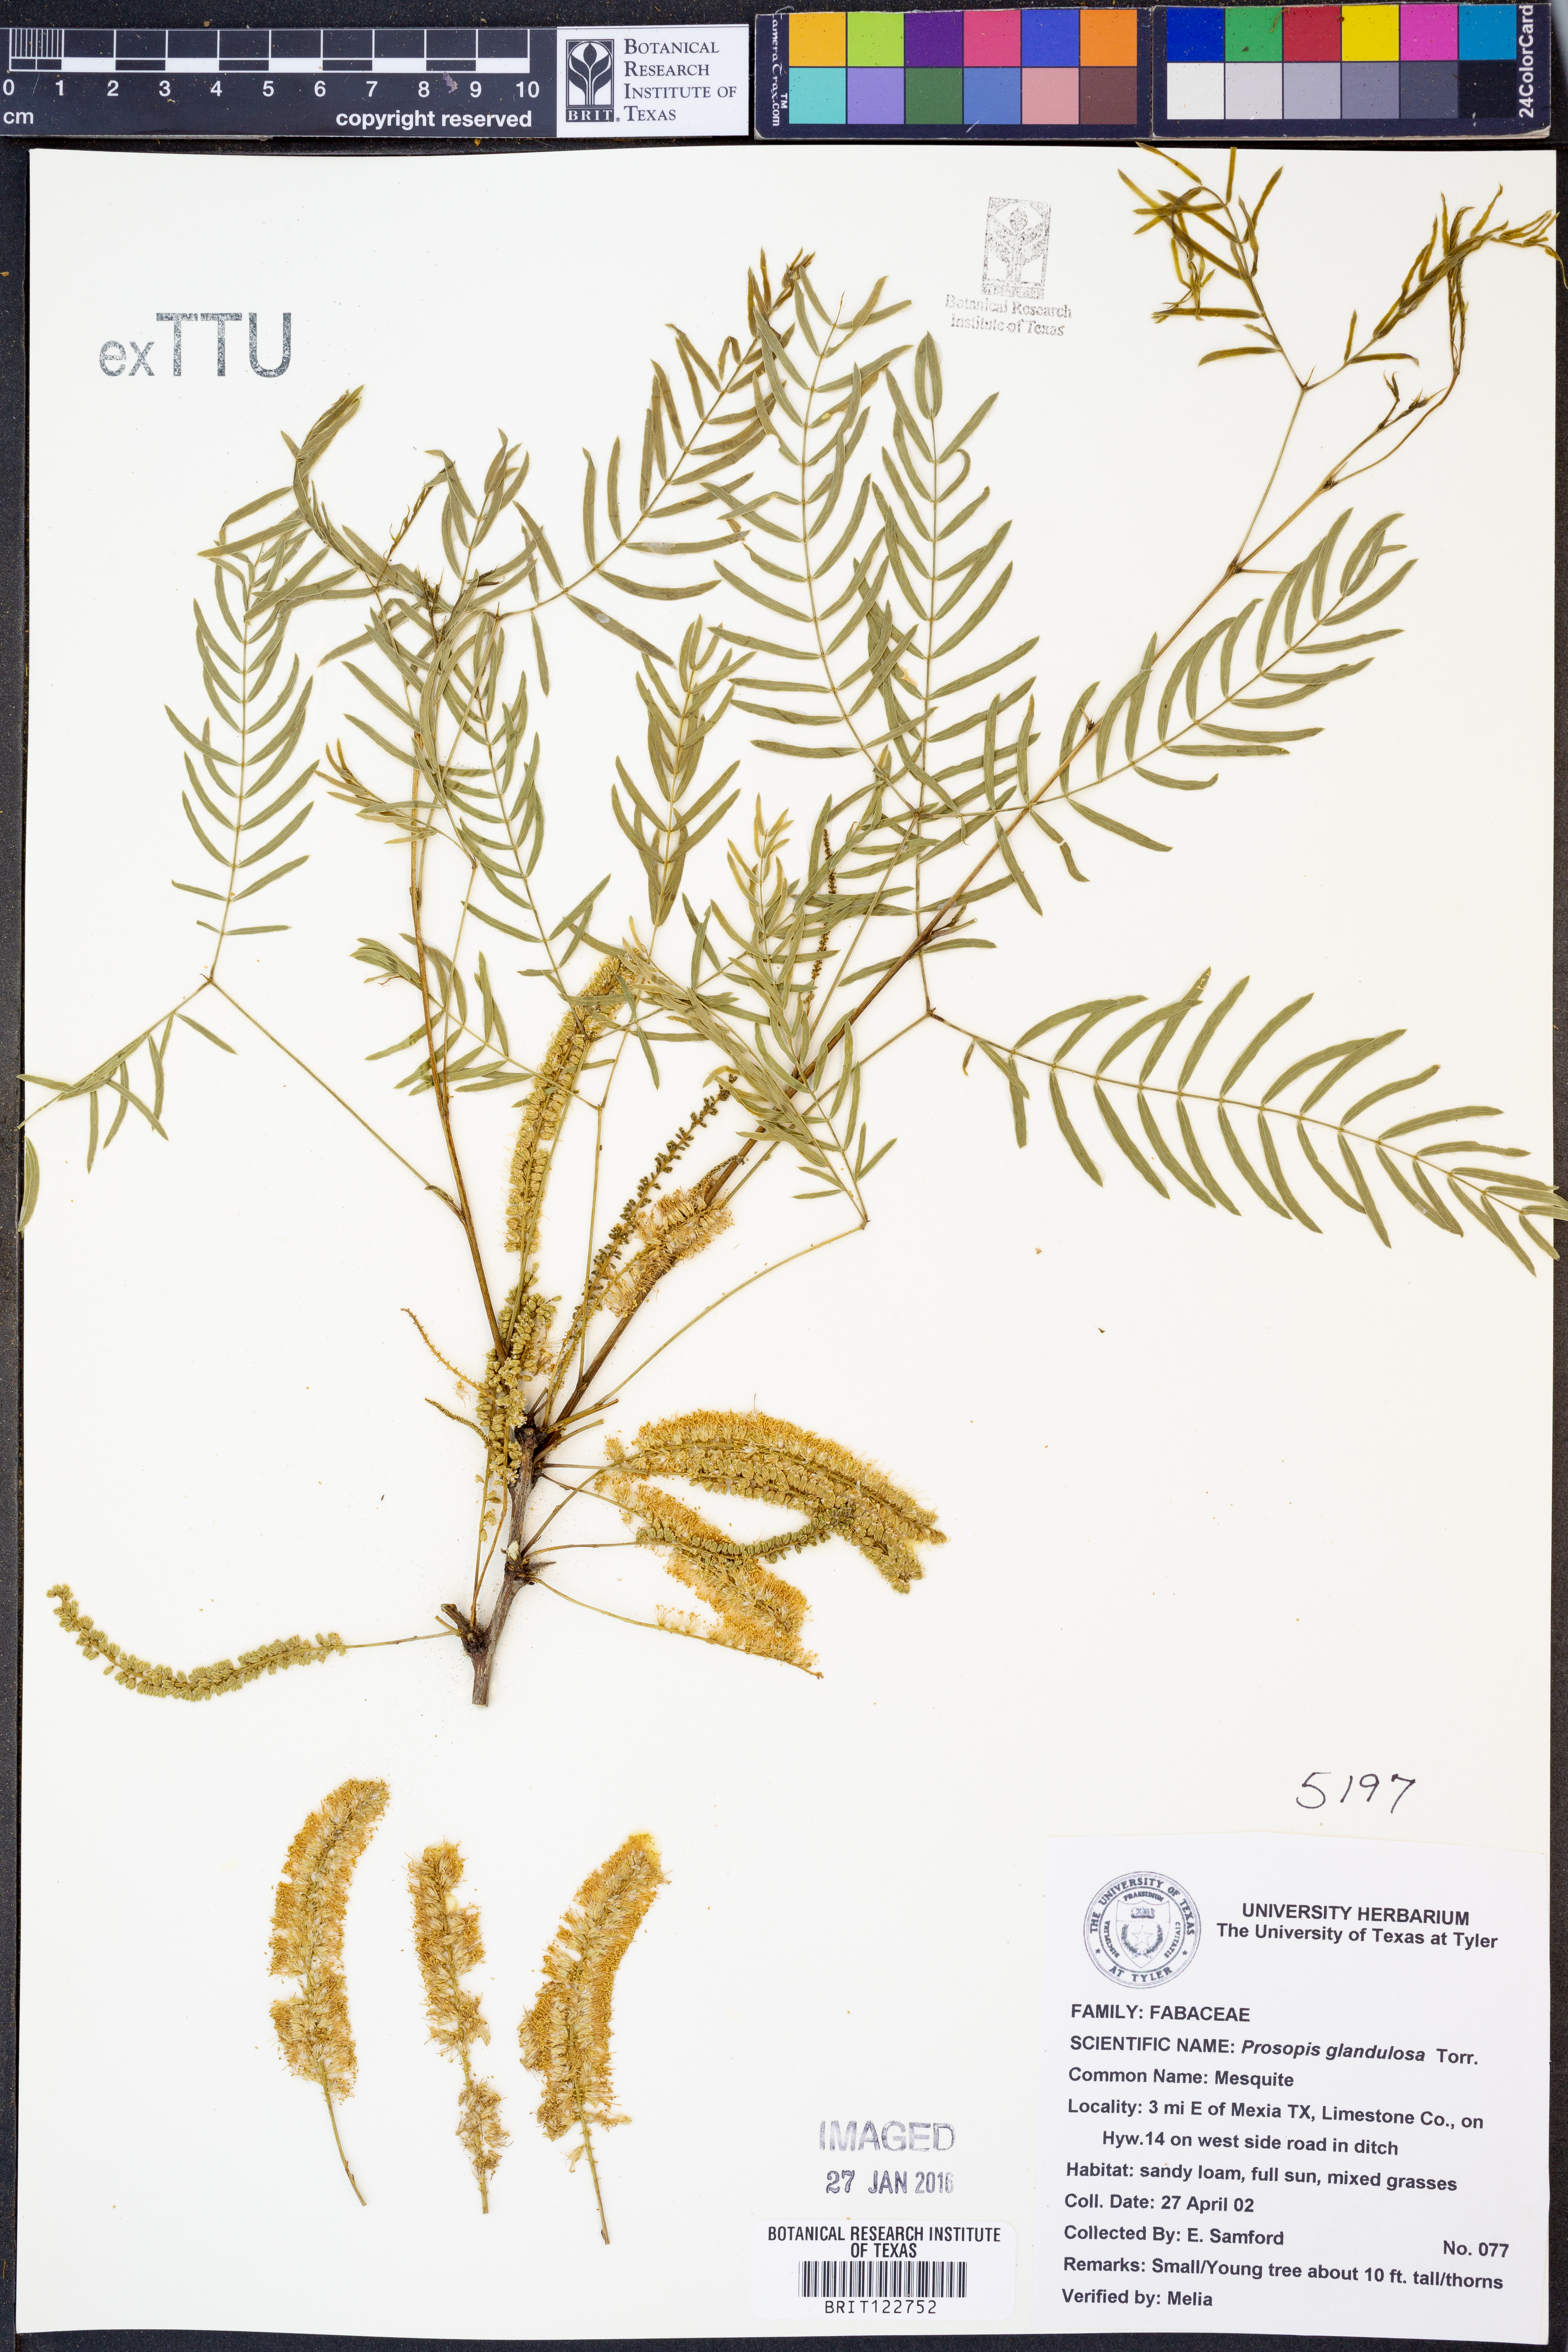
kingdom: Plantae
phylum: Tracheophyta
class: Magnoliopsida
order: Fabales
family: Fabaceae
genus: Prosopis
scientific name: Prosopis glandulosa
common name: Honey mesquite
